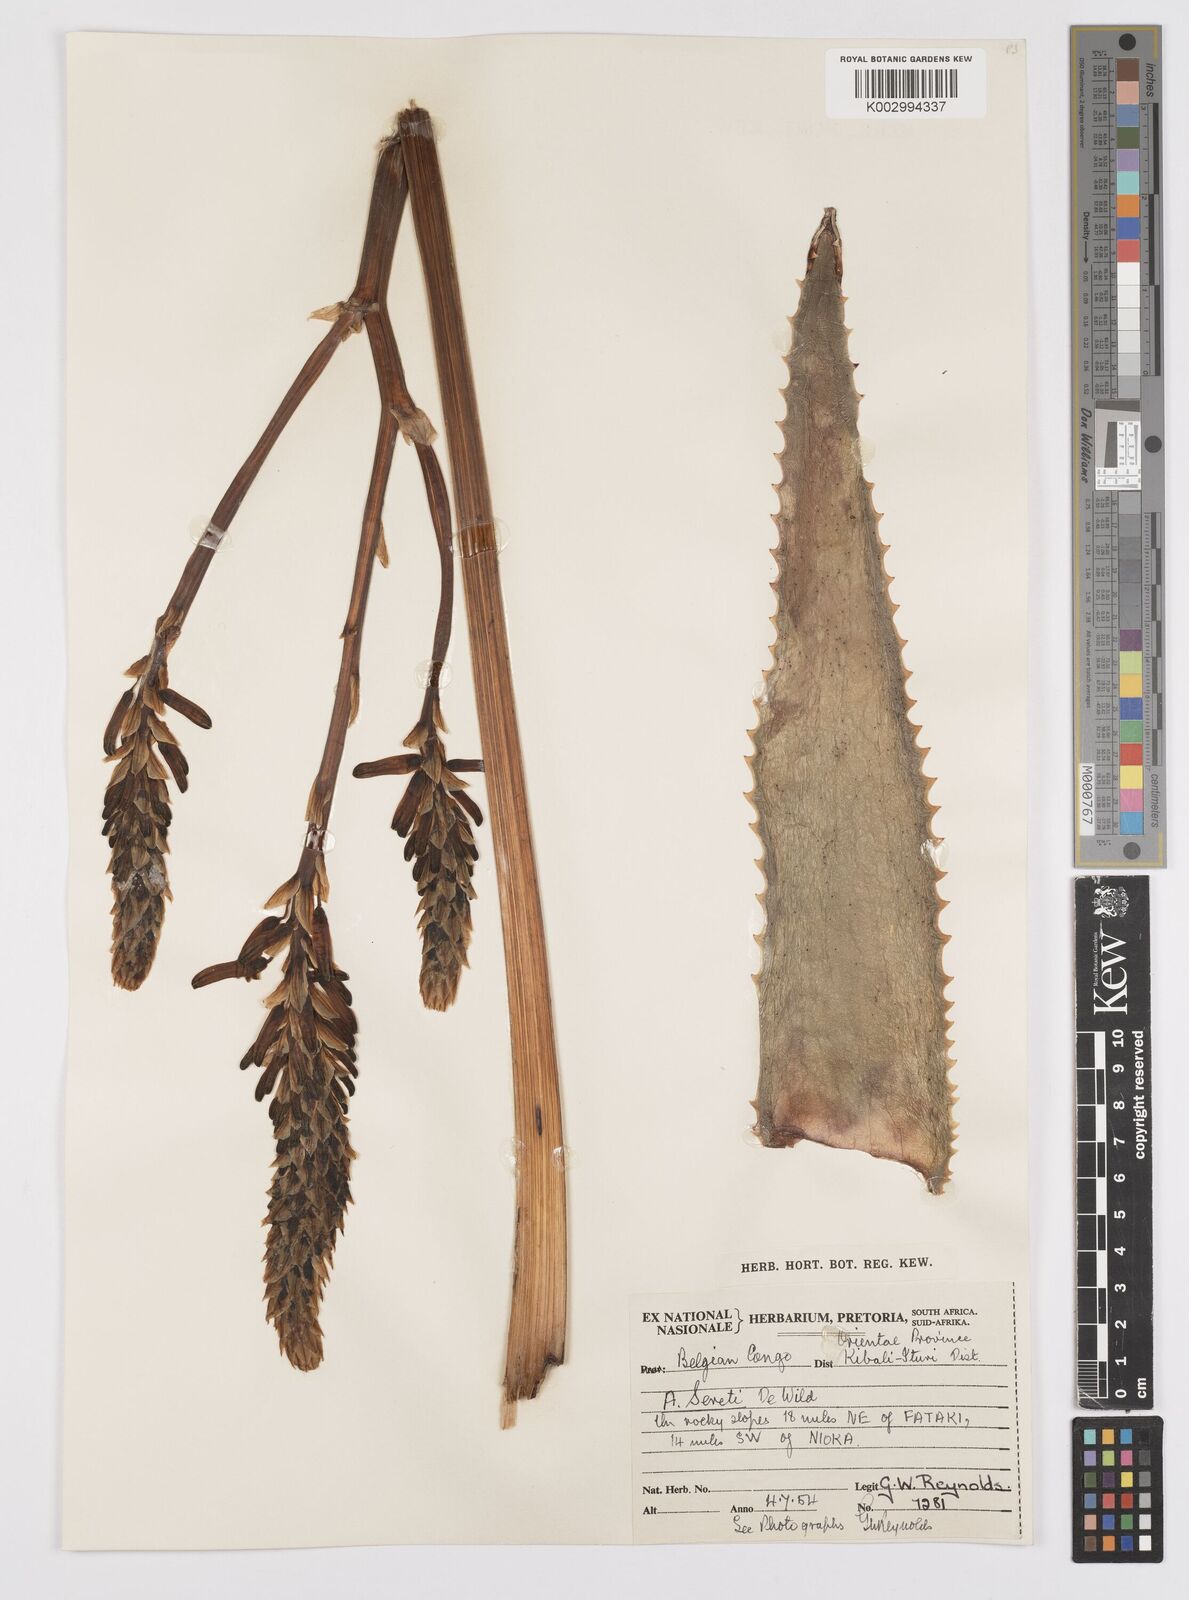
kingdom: Plantae
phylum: Tracheophyta
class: Liliopsida
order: Asparagales
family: Asphodelaceae
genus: Aloe
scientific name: Aloe seretii
